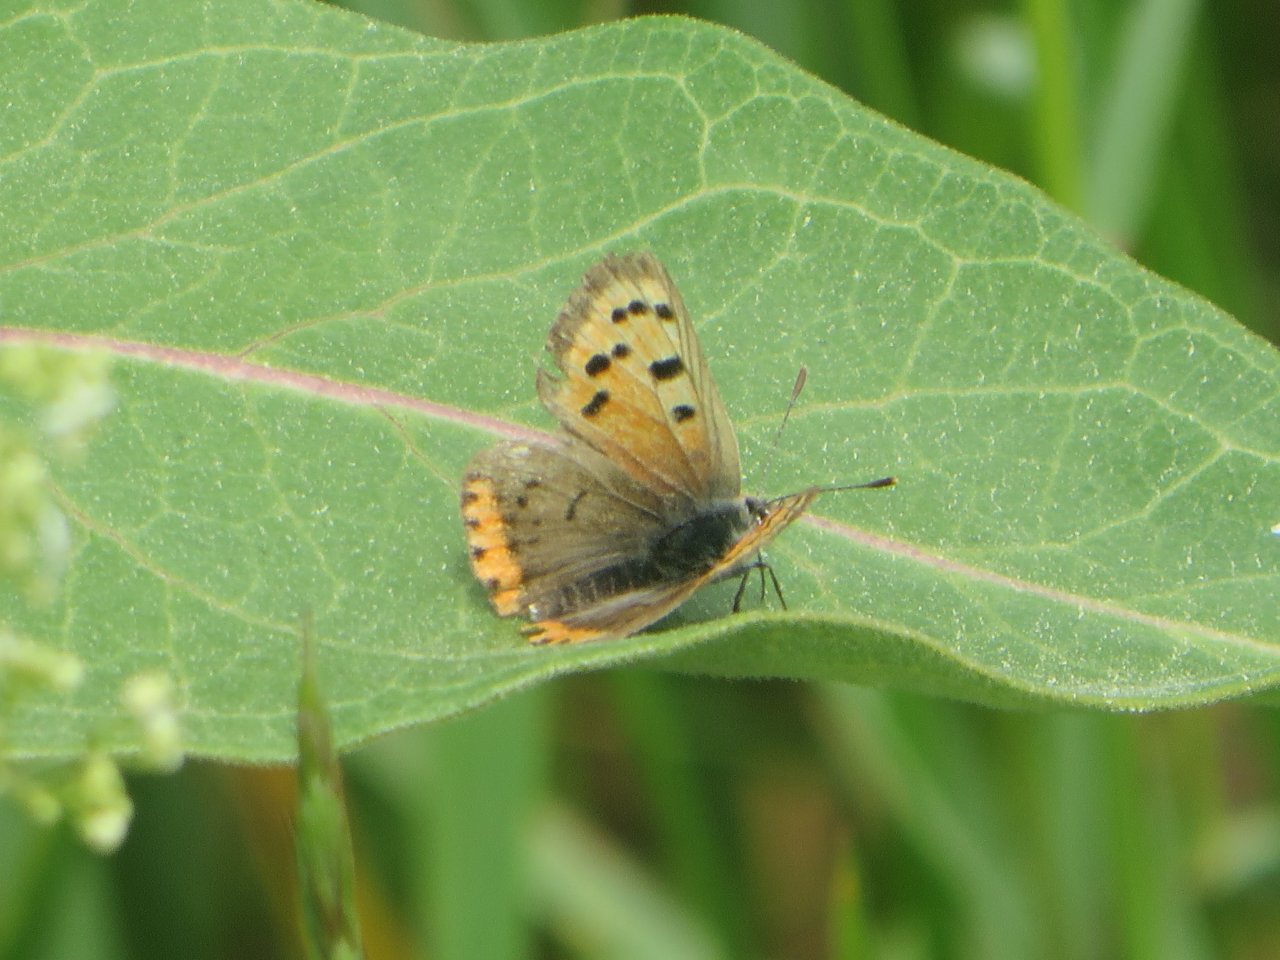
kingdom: Animalia
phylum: Arthropoda
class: Insecta
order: Lepidoptera
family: Lycaenidae
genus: Lycaena
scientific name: Lycaena phlaeas
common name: American Copper
